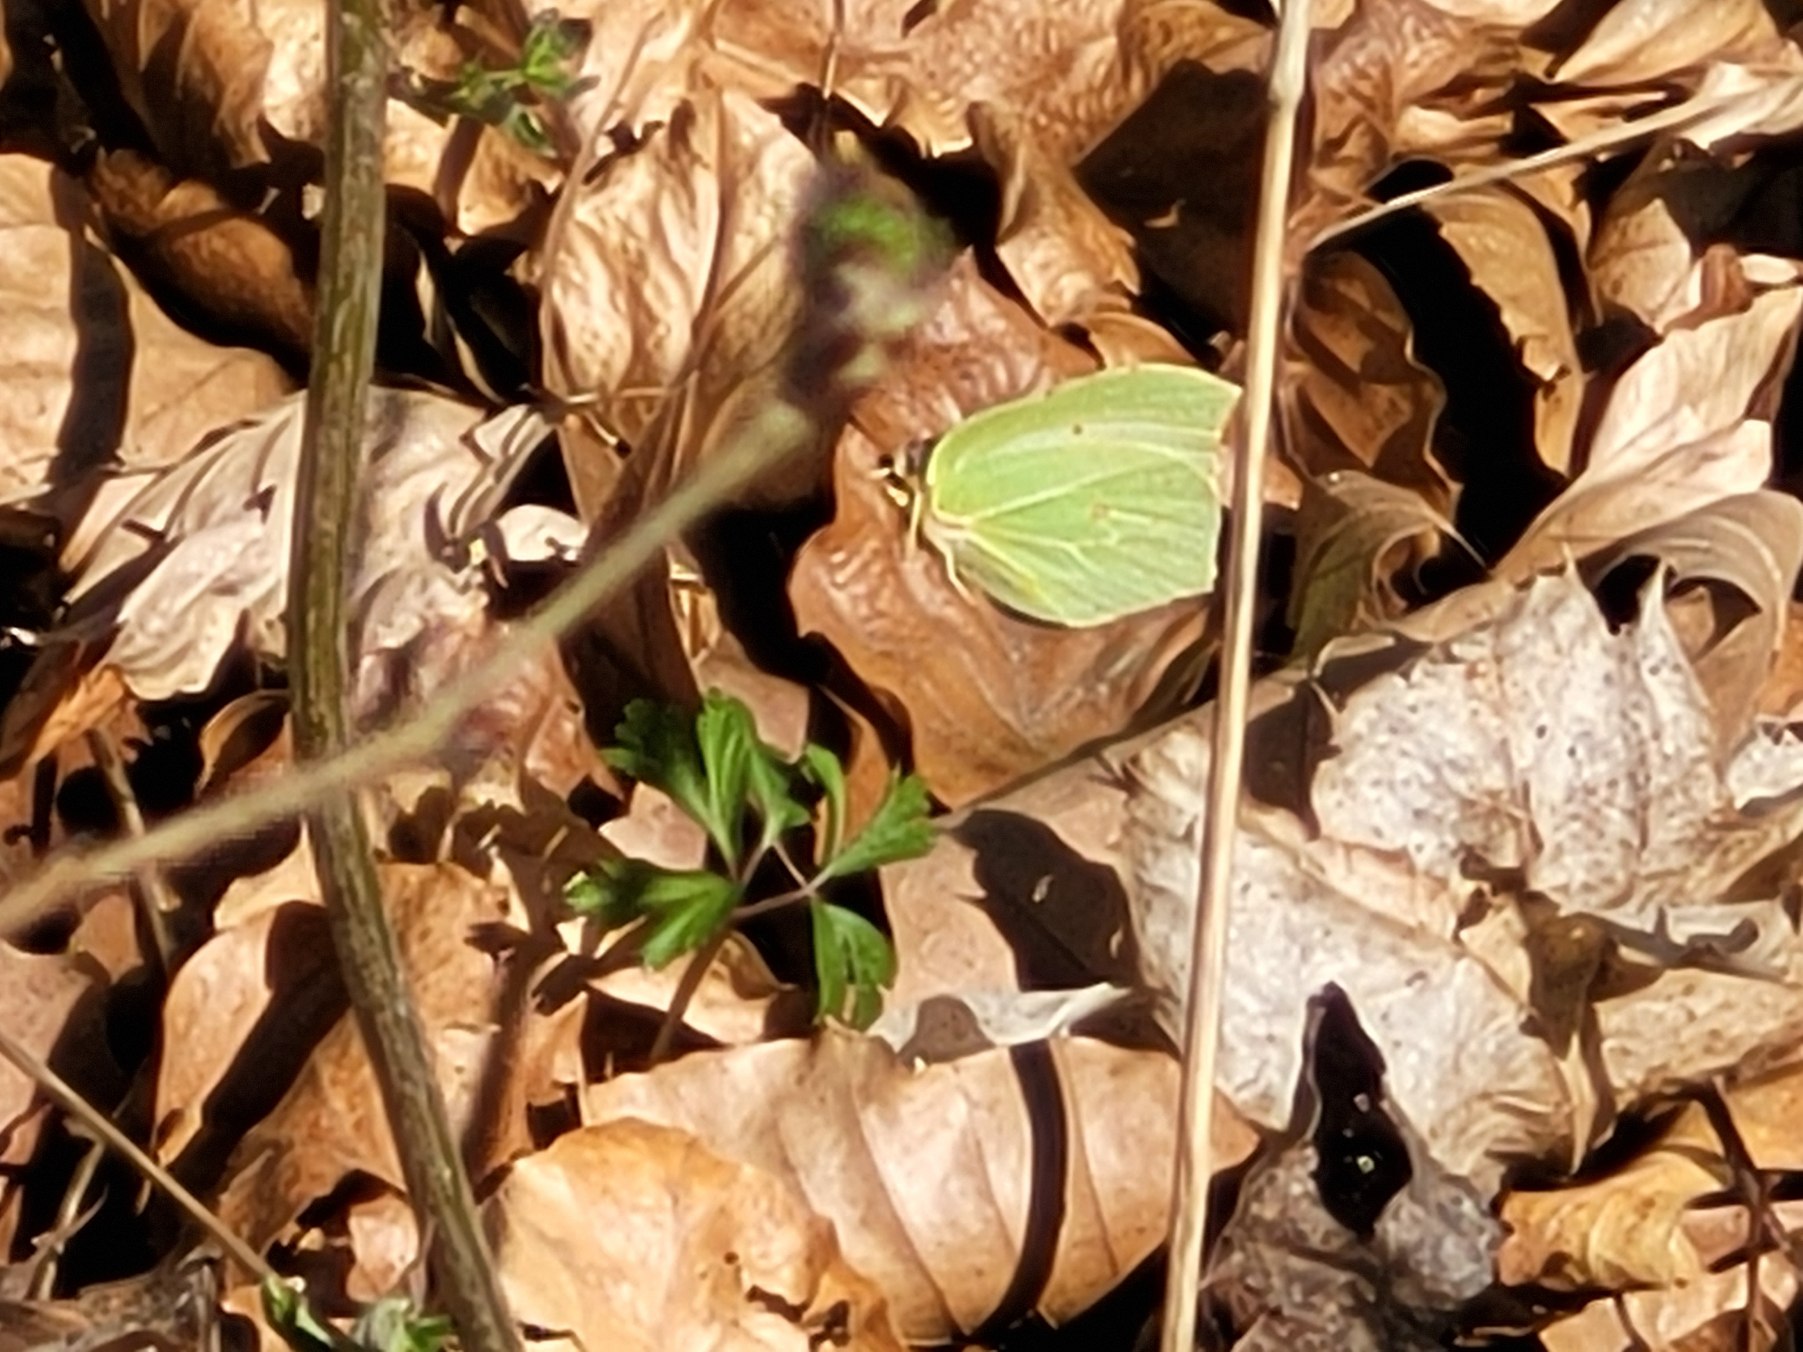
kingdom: Animalia
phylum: Arthropoda
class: Insecta
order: Lepidoptera
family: Pieridae
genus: Gonepteryx
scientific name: Gonepteryx rhamni
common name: Citronsommerfugl
